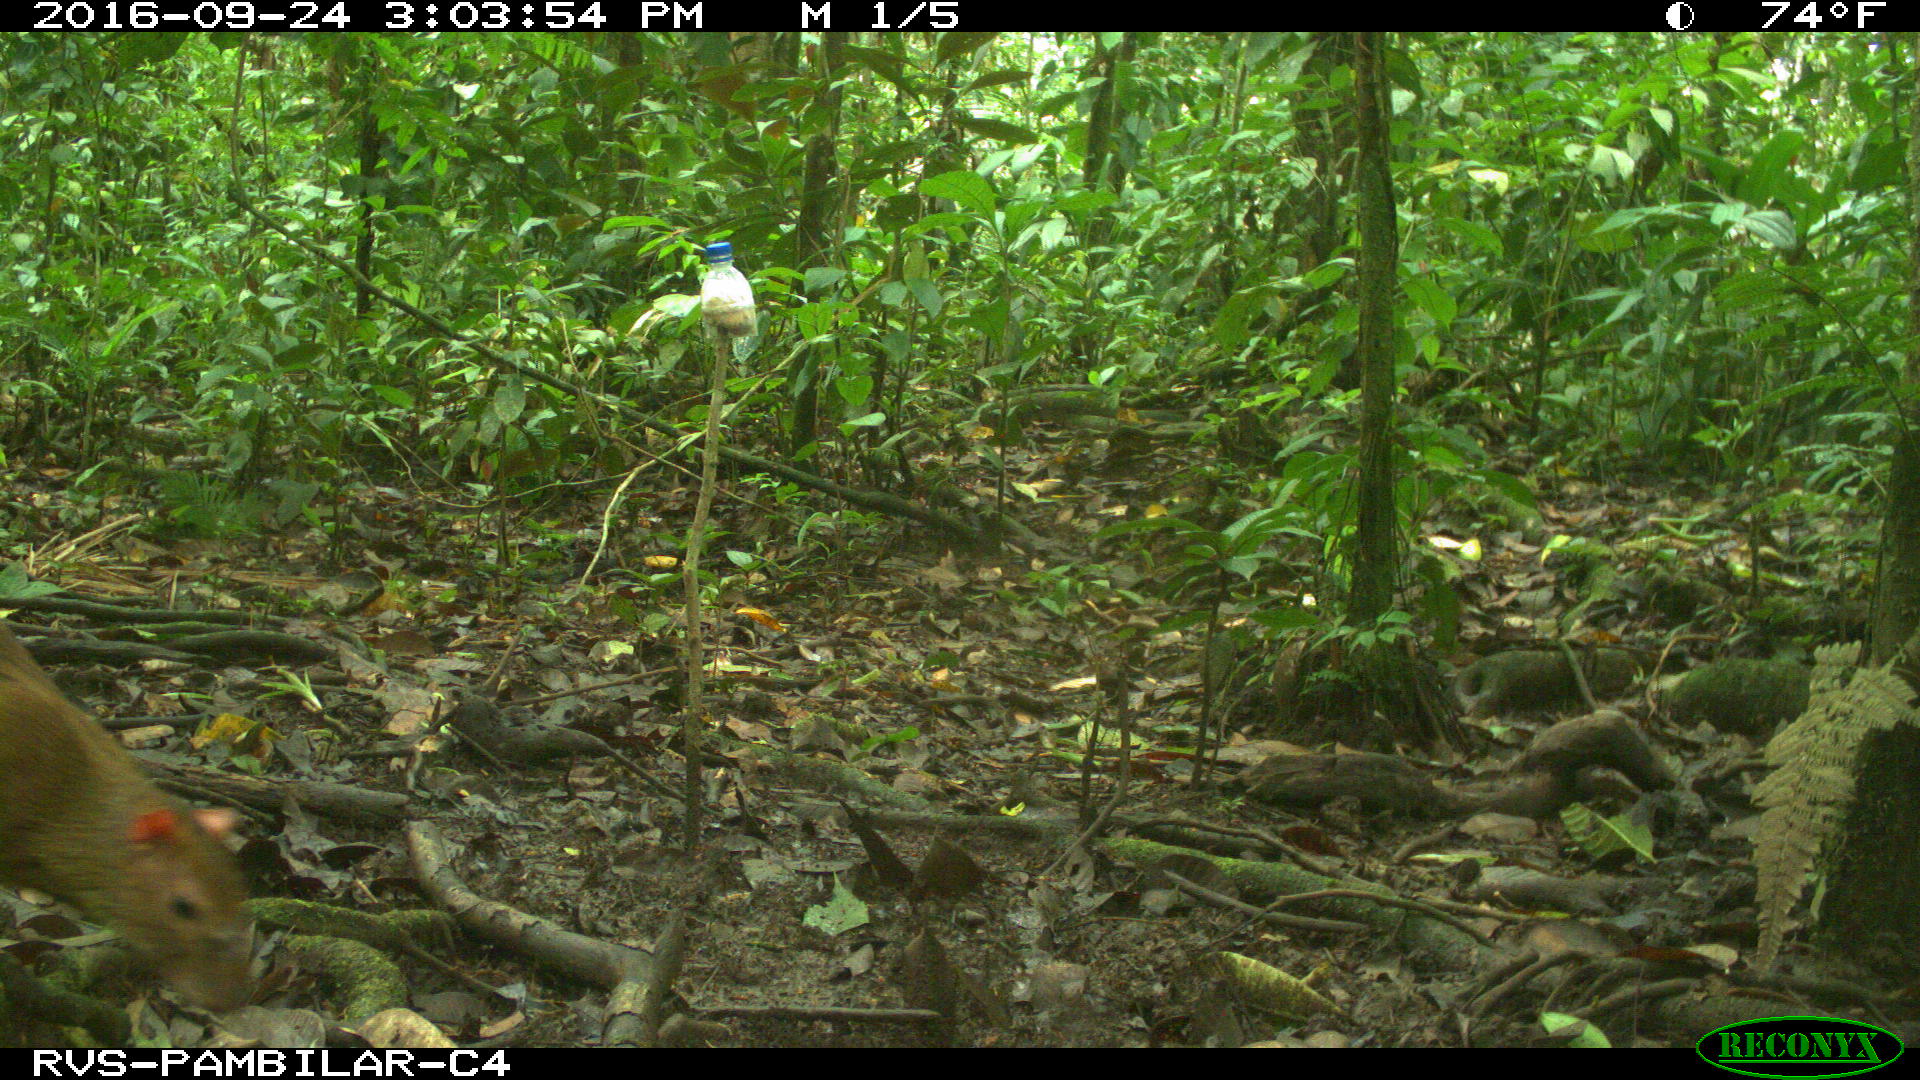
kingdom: Animalia
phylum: Chordata
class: Mammalia
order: Rodentia
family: Dasyproctidae
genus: Dasyprocta
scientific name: Dasyprocta punctata
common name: Central american agouti
